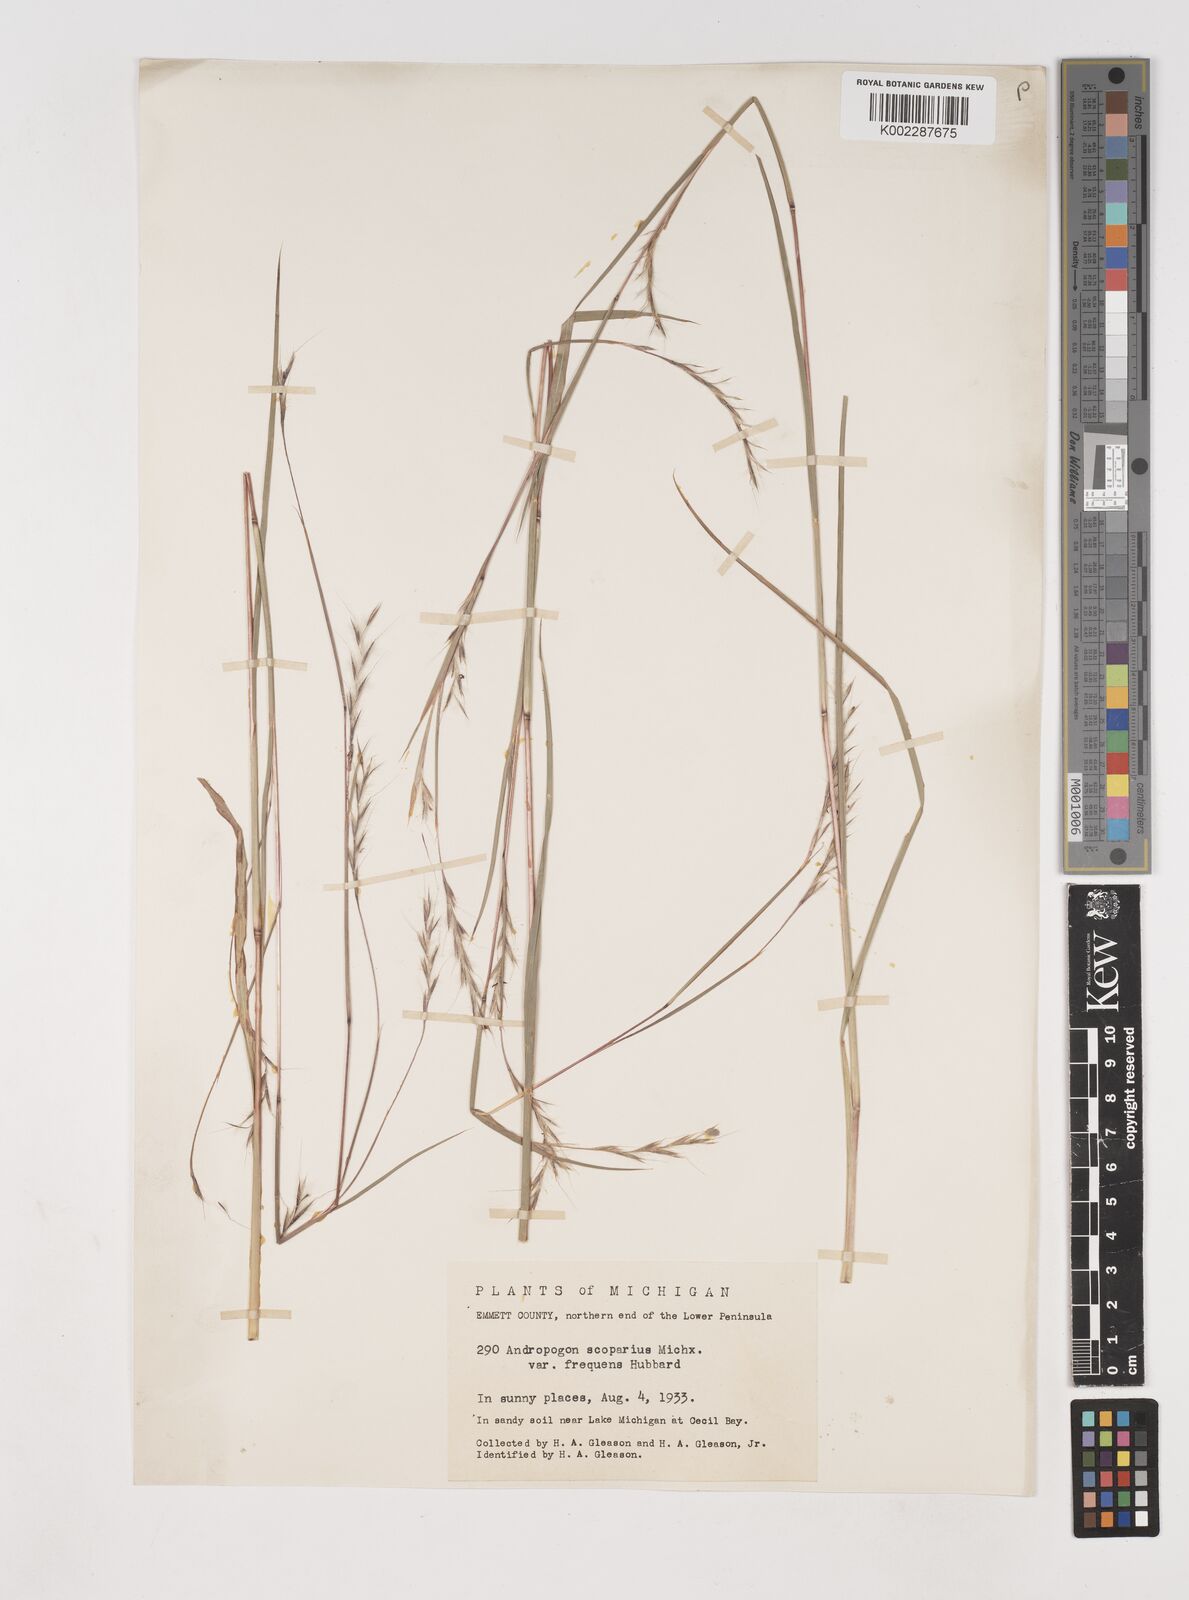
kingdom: Plantae
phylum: Tracheophyta
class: Liliopsida
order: Poales
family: Poaceae
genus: Schizachyrium
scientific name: Schizachyrium scoparium
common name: Little bluestem
